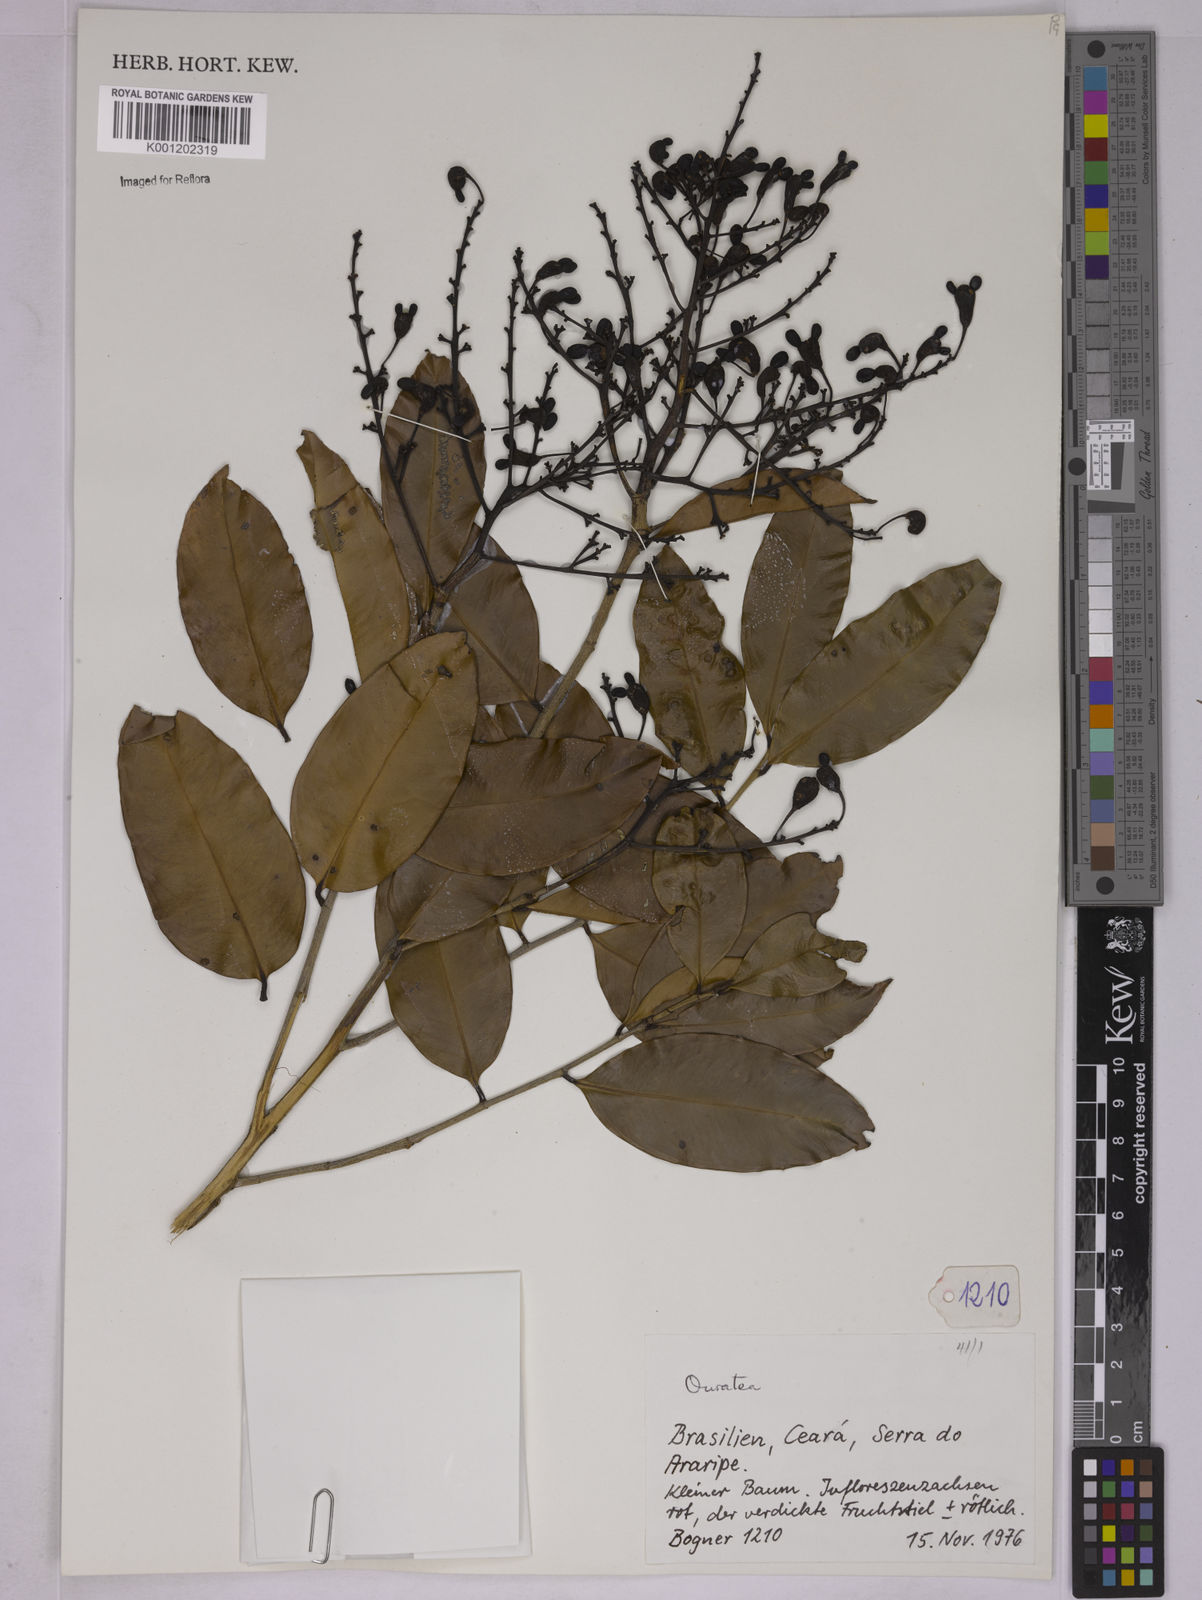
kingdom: Plantae
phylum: Tracheophyta
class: Magnoliopsida
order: Malpighiales
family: Ochnaceae
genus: Ouratea
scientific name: Ouratea
